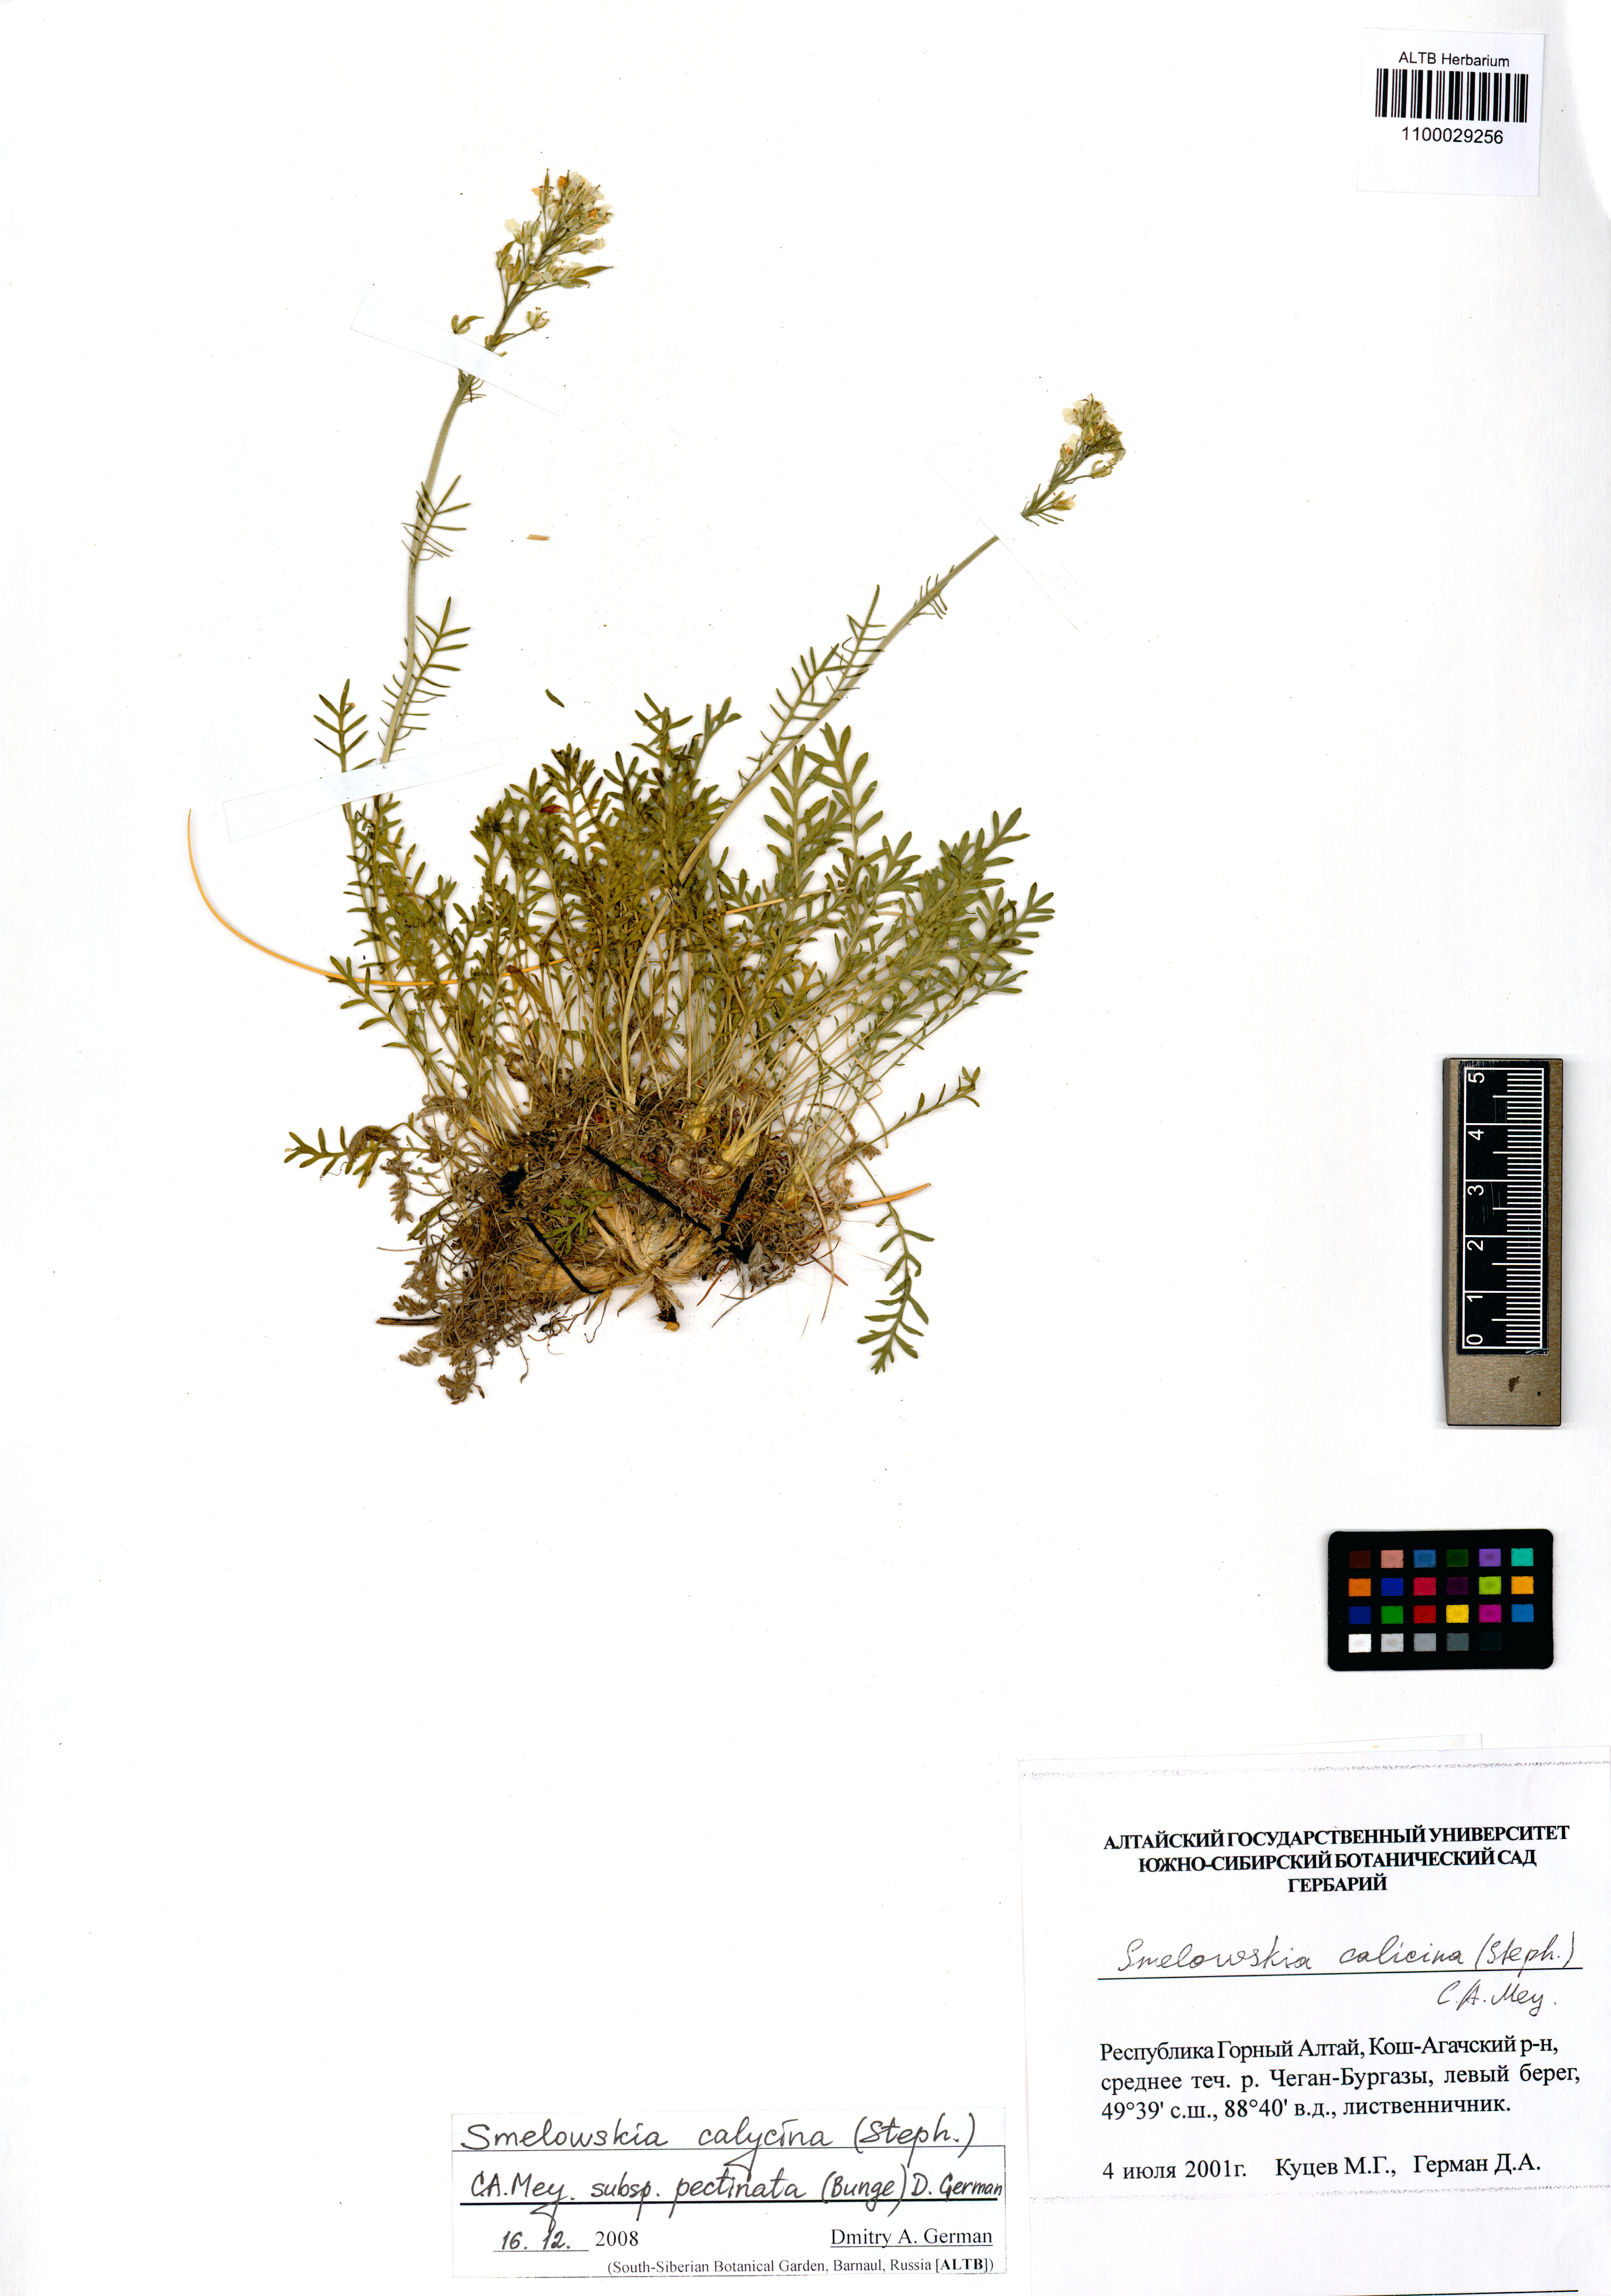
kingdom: Plantae
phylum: Tracheophyta
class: Magnoliopsida
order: Brassicales
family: Brassicaceae
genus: Smelowskia
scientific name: Smelowskia calycina
